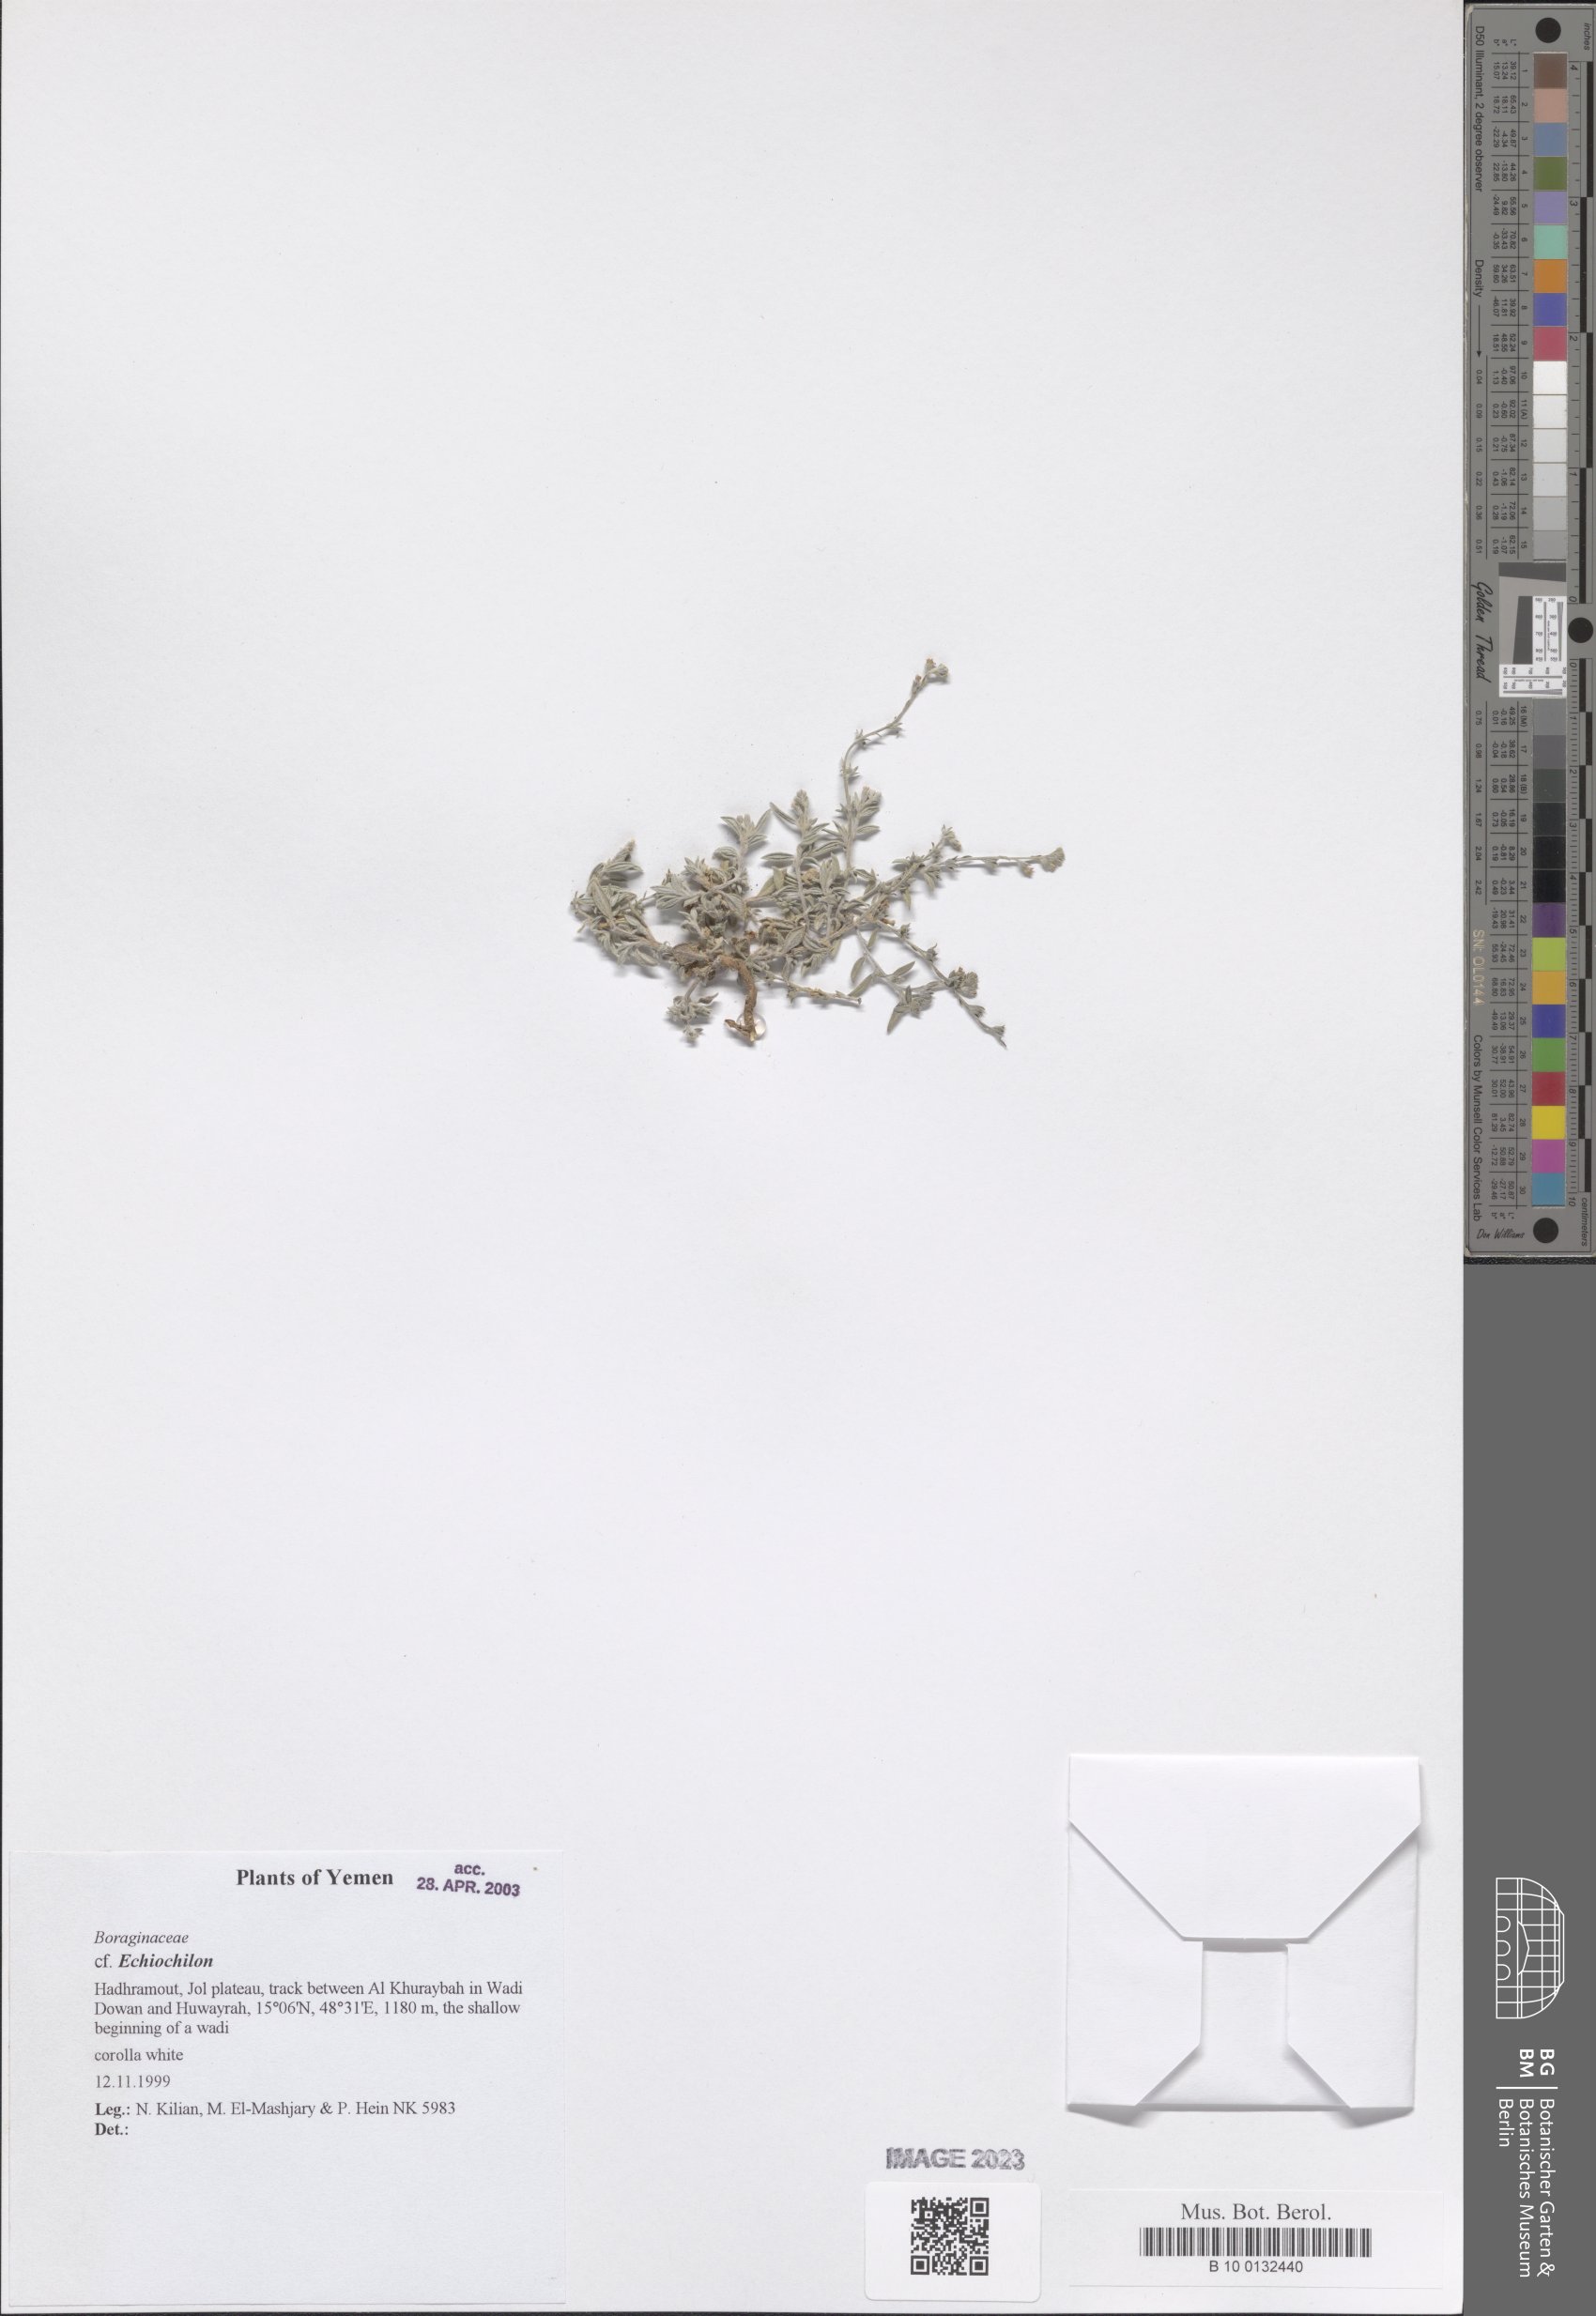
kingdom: Plantae
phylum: Tracheophyta
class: Magnoliopsida
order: Boraginales
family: Boraginaceae
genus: Echiochilon
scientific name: Echiochilon
